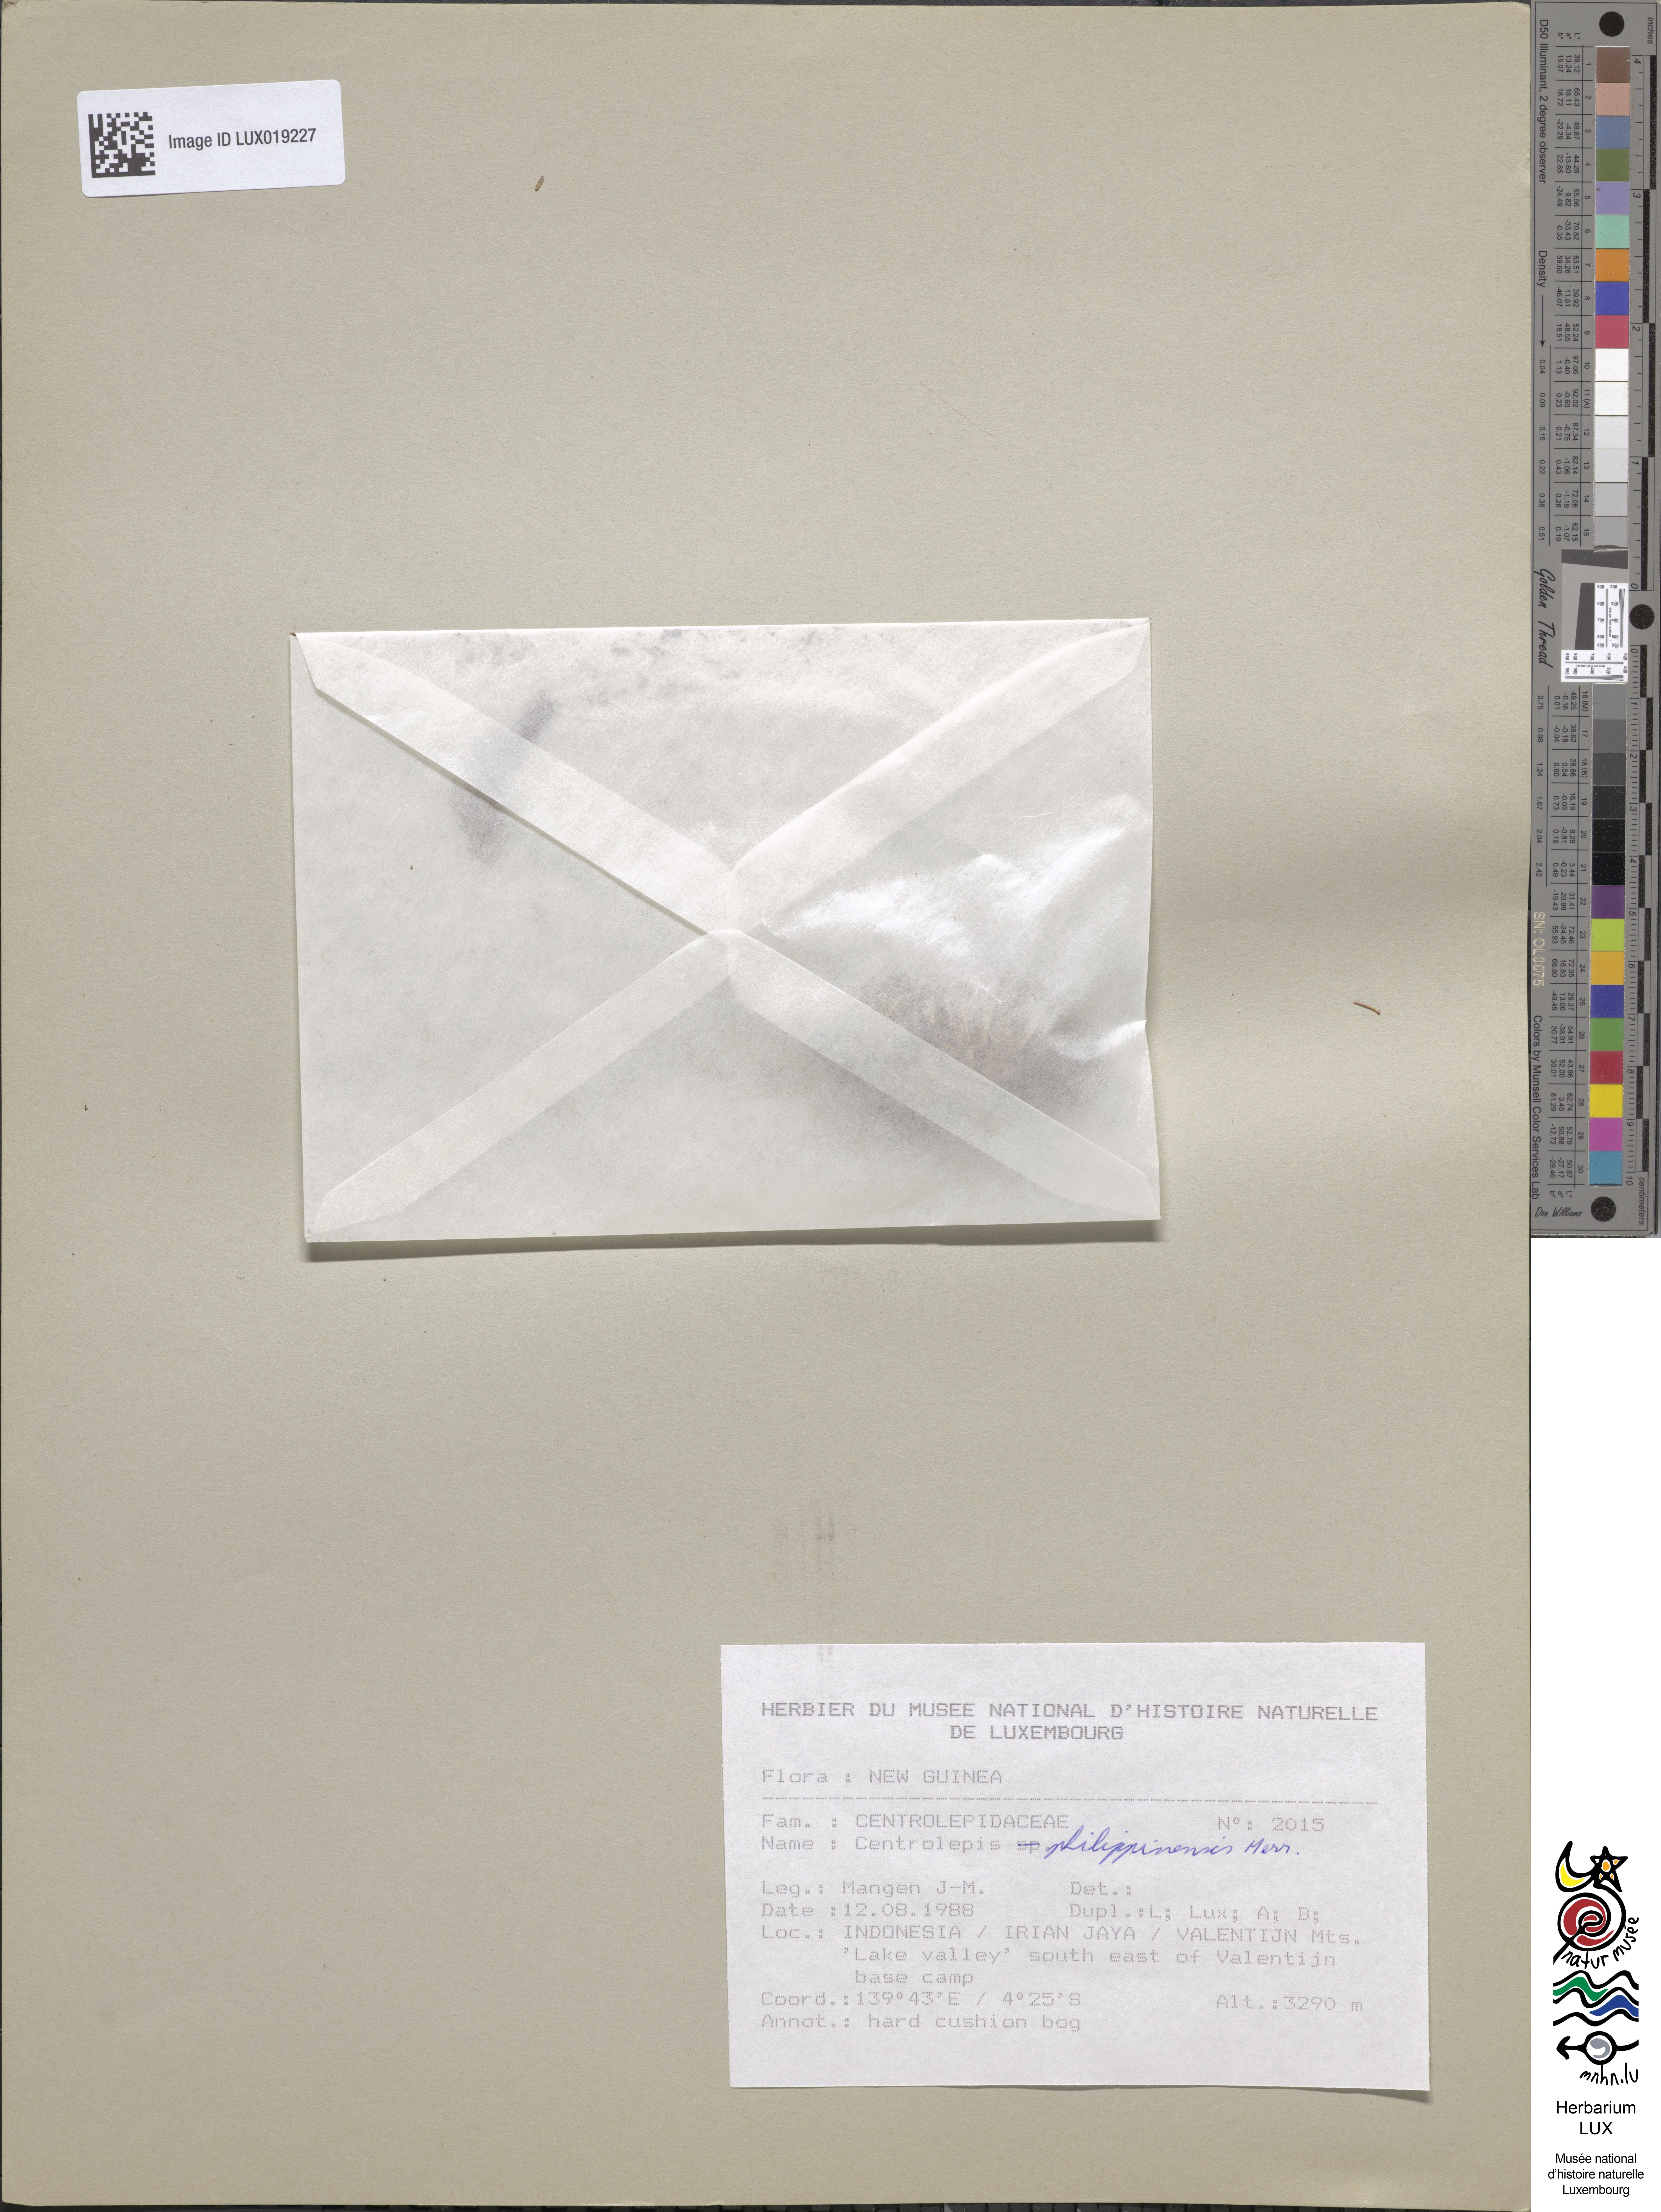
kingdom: Plantae
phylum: Tracheophyta
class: Liliopsida
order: Poales
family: Restionaceae
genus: Centrolepis
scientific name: Centrolepis philippinensis
